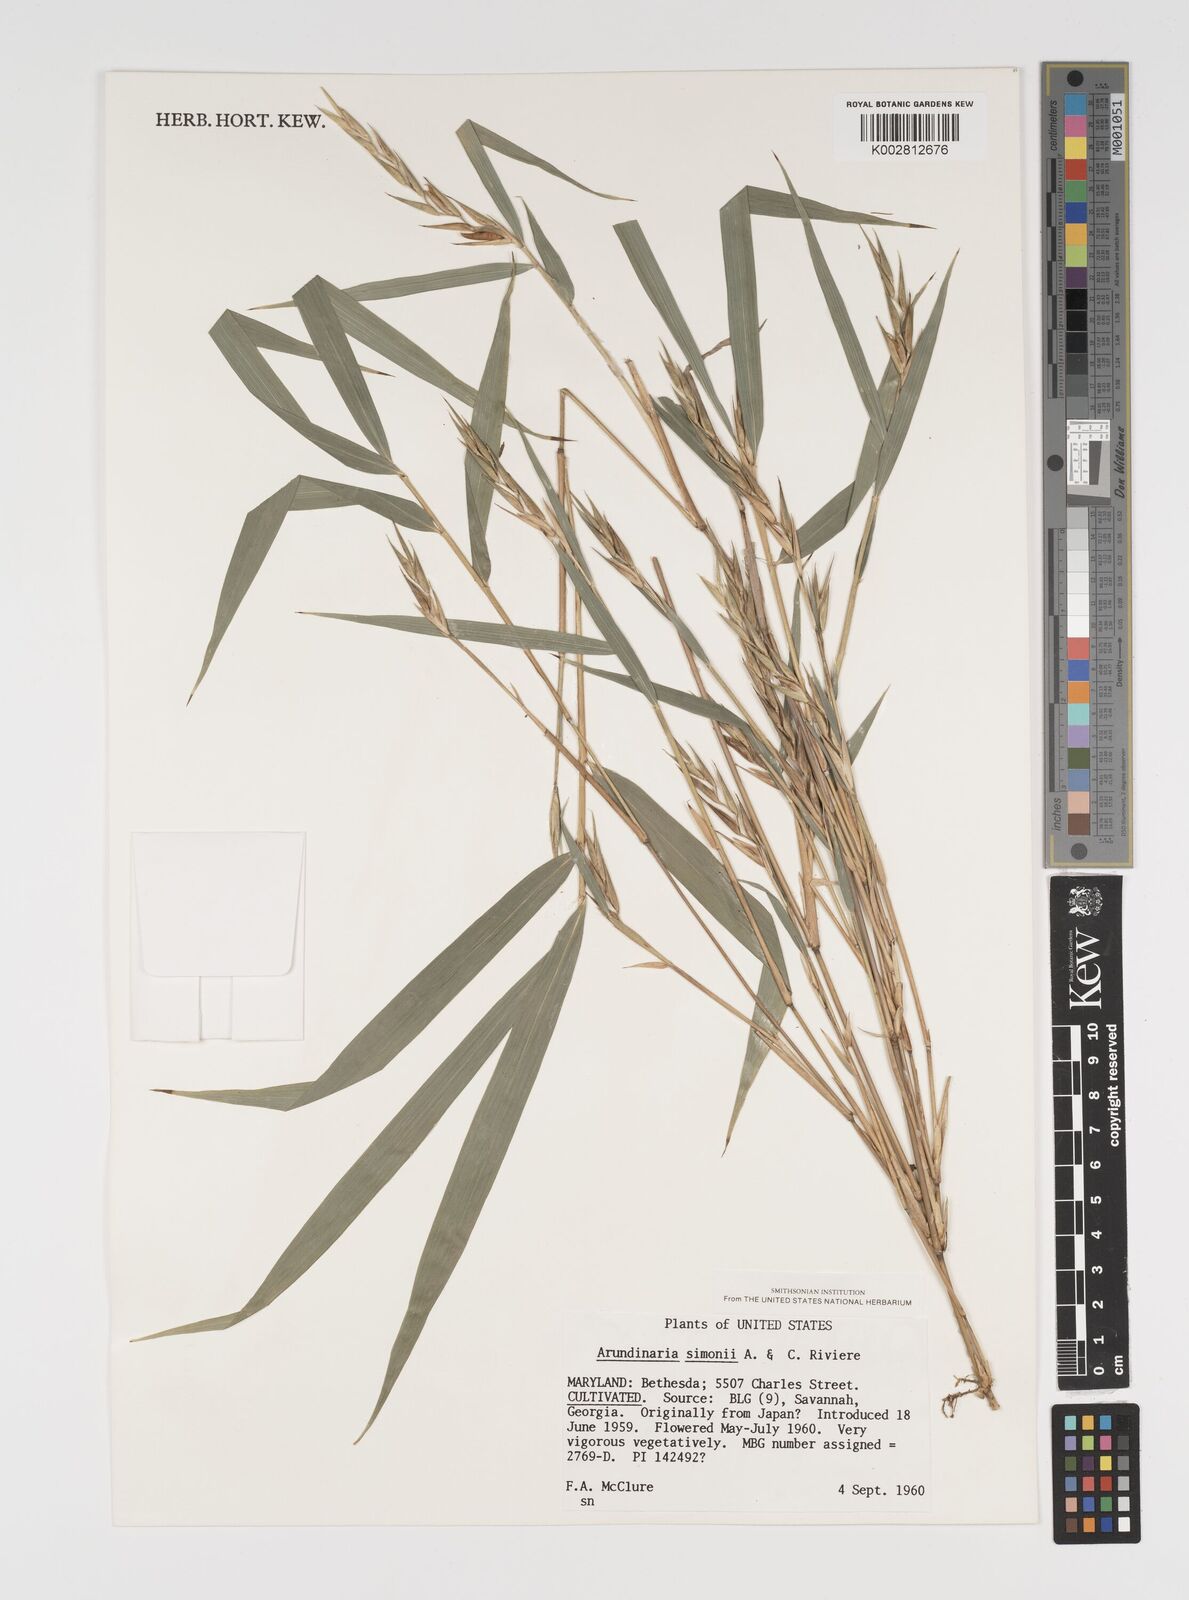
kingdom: Plantae
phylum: Tracheophyta
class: Liliopsida
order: Poales
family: Poaceae
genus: Pleioblastus
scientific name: Pleioblastus simonii
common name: Simon bamboo
